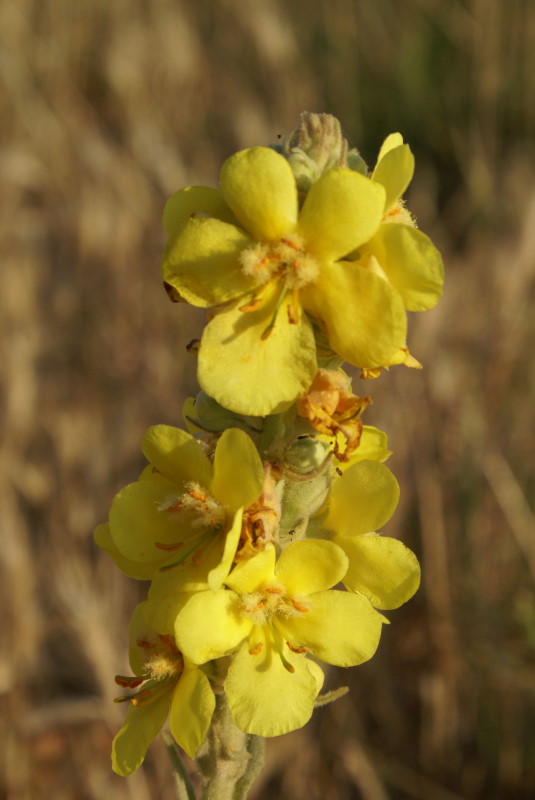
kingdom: Plantae
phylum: Tracheophyta
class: Magnoliopsida
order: Lamiales
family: Scrophulariaceae
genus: Verbascum
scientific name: Verbascum
